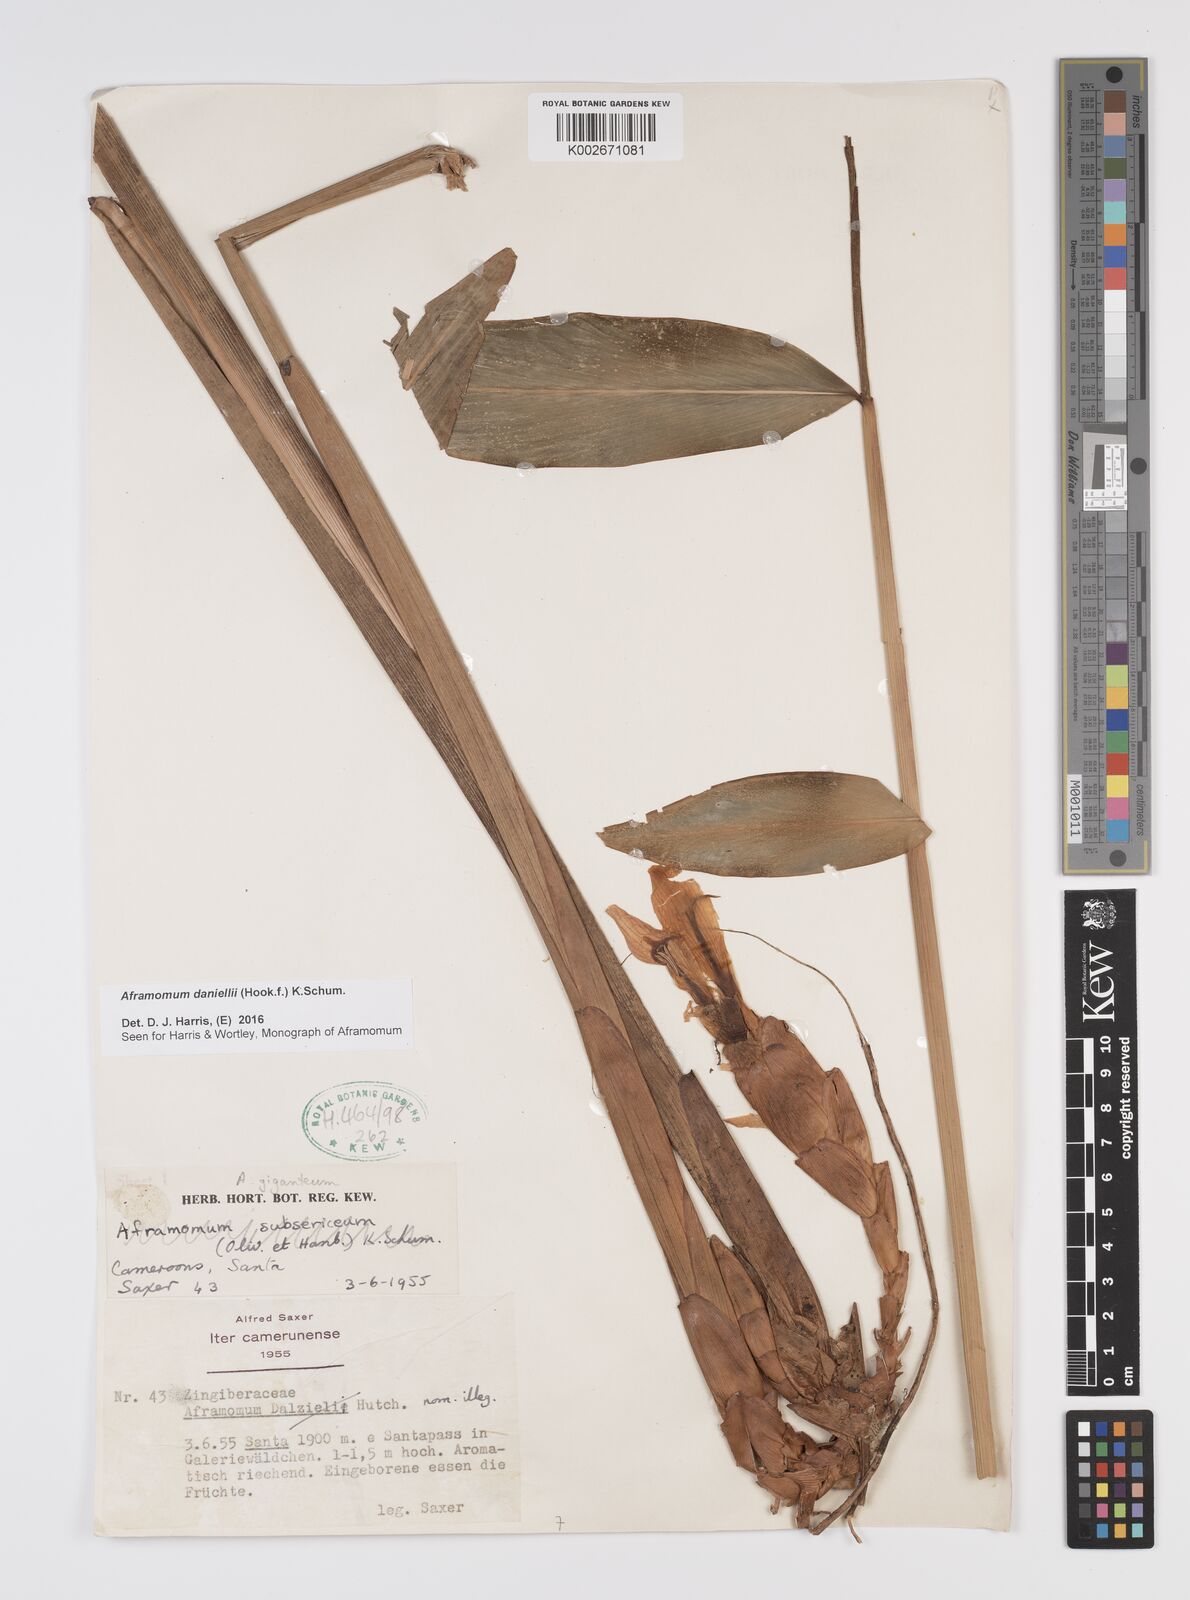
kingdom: Plantae
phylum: Tracheophyta
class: Liliopsida
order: Zingiberales
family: Zingiberaceae
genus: Aframomum
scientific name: Aframomum daniellii
